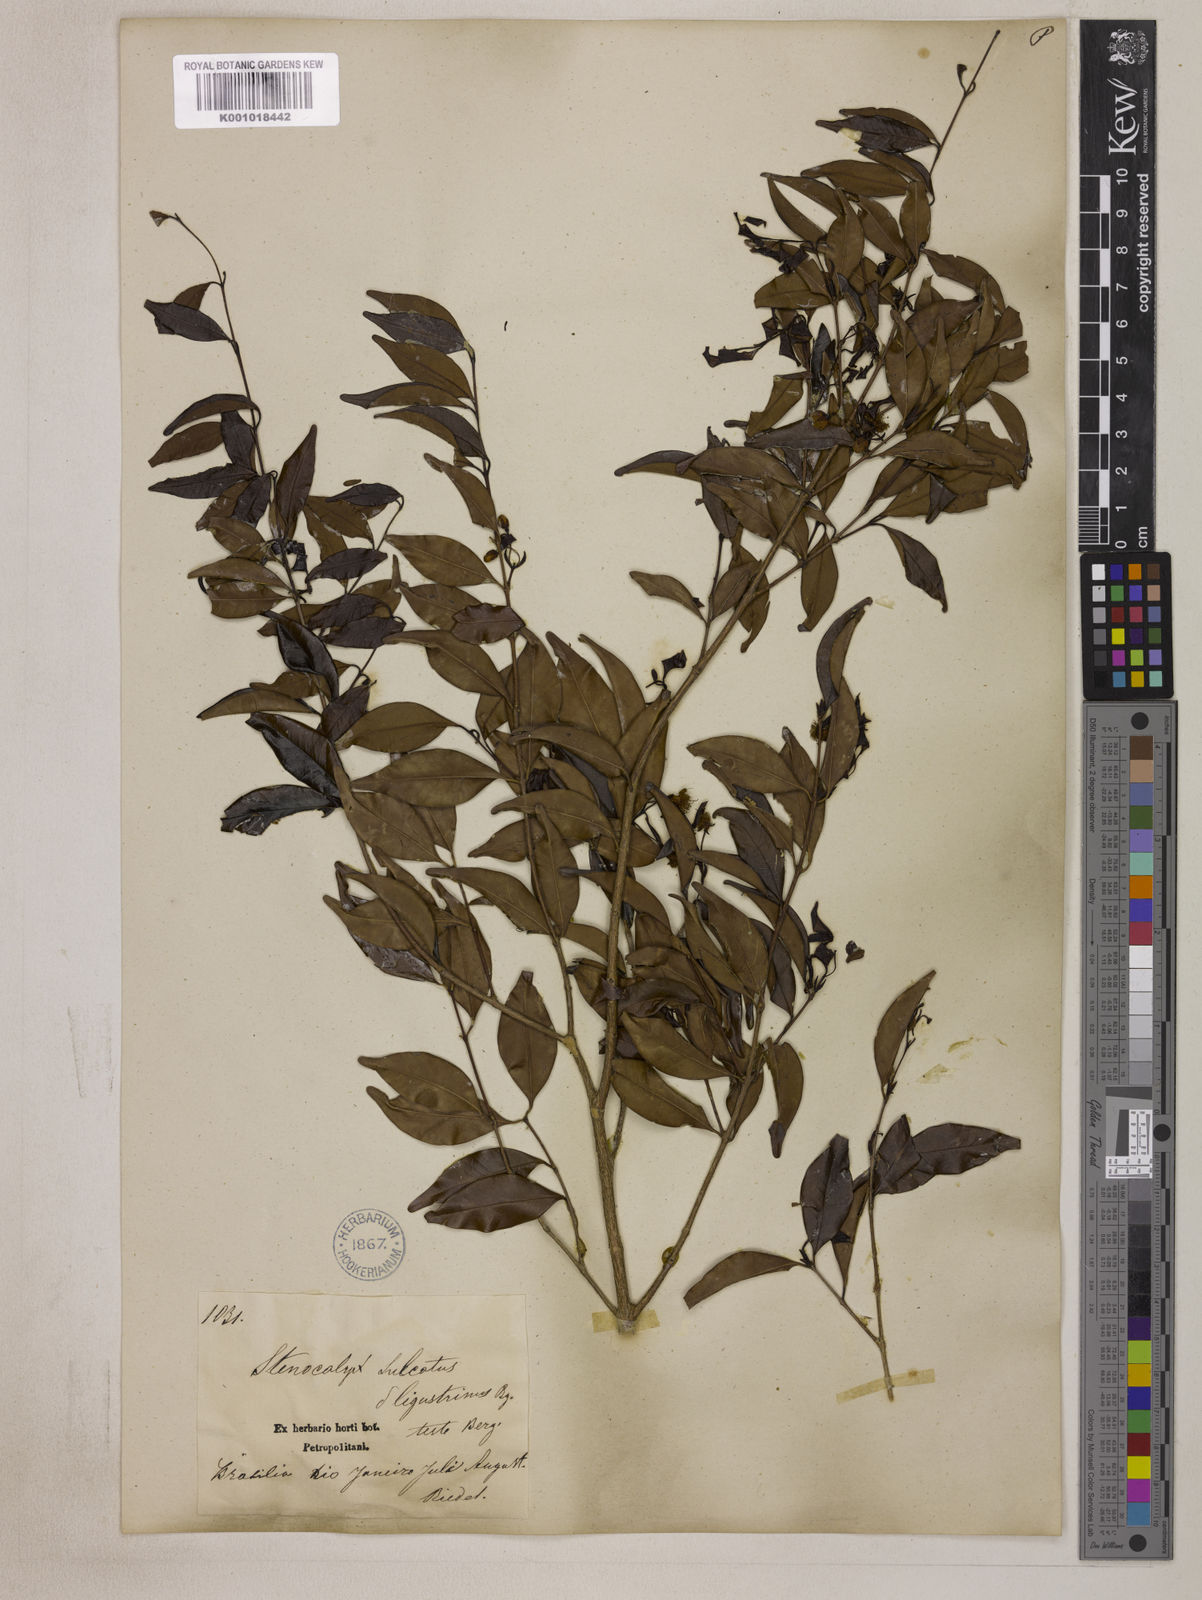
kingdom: Plantae
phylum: Tracheophyta
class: Magnoliopsida
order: Myrtales
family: Myrtaceae
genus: Eugenia
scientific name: Eugenia sulcata
